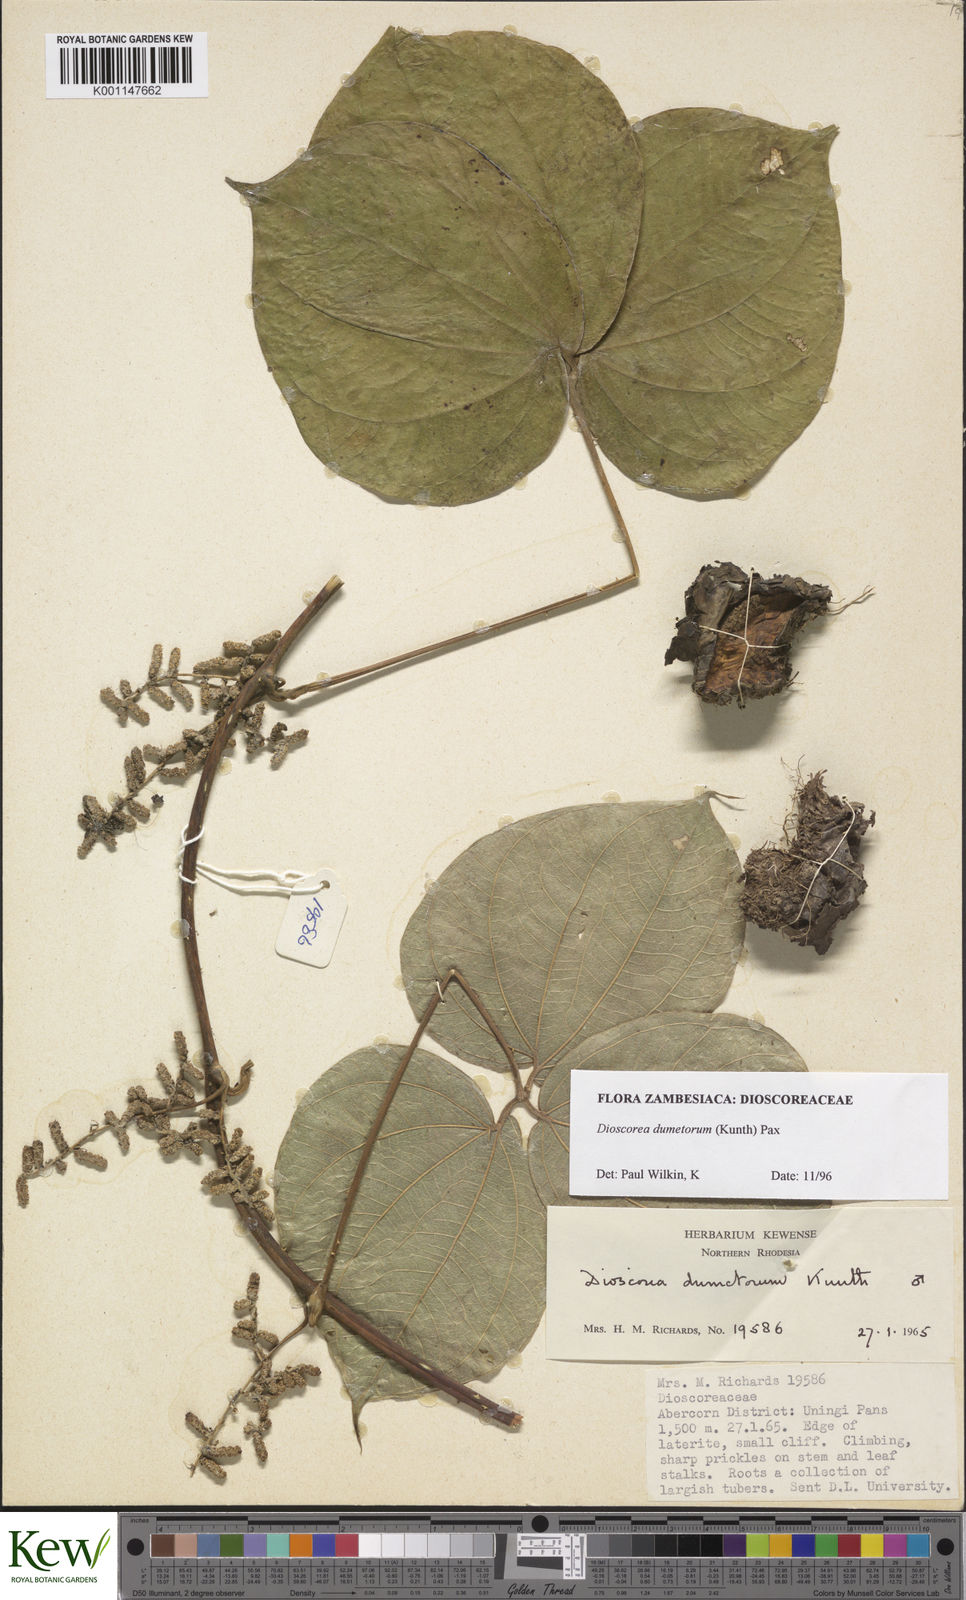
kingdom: Plantae
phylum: Tracheophyta
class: Liliopsida
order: Dioscoreales
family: Dioscoreaceae
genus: Dioscorea
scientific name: Dioscorea dumetorum
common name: African bitter yam
